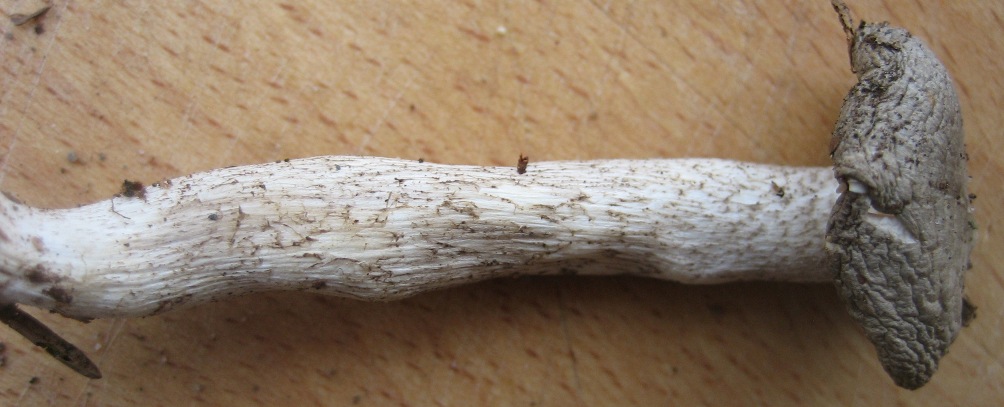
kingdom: Fungi
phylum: Basidiomycota
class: Agaricomycetes
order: Agaricales
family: Hygrophoraceae
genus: Hygrophorus
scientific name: Hygrophorus pustulatus
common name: mørkprikket sneglehat
